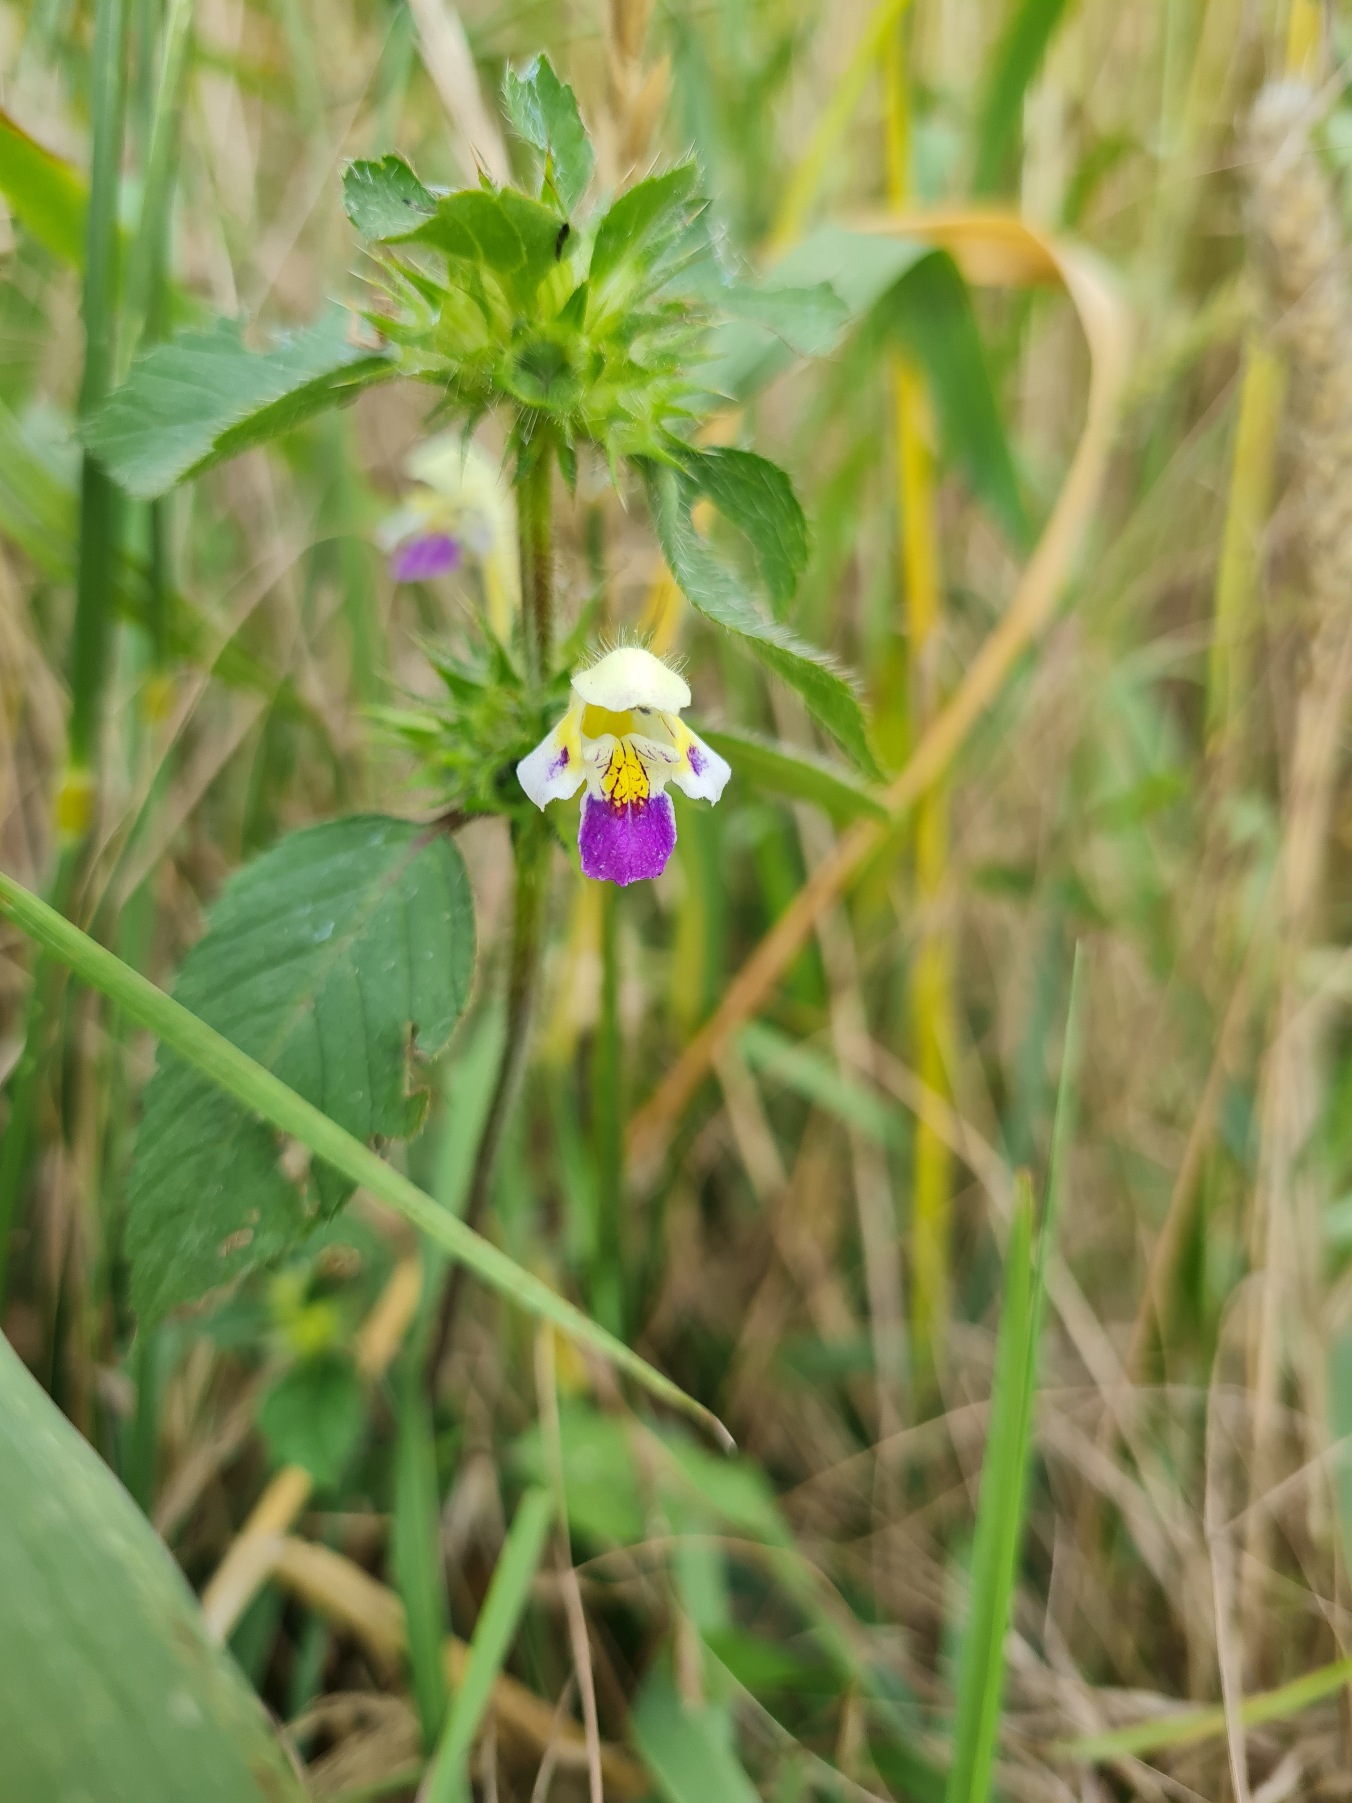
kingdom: Plantae
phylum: Tracheophyta
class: Magnoliopsida
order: Lamiales
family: Lamiaceae
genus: Galeopsis
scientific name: Galeopsis speciosa
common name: Hamp-hanekro
